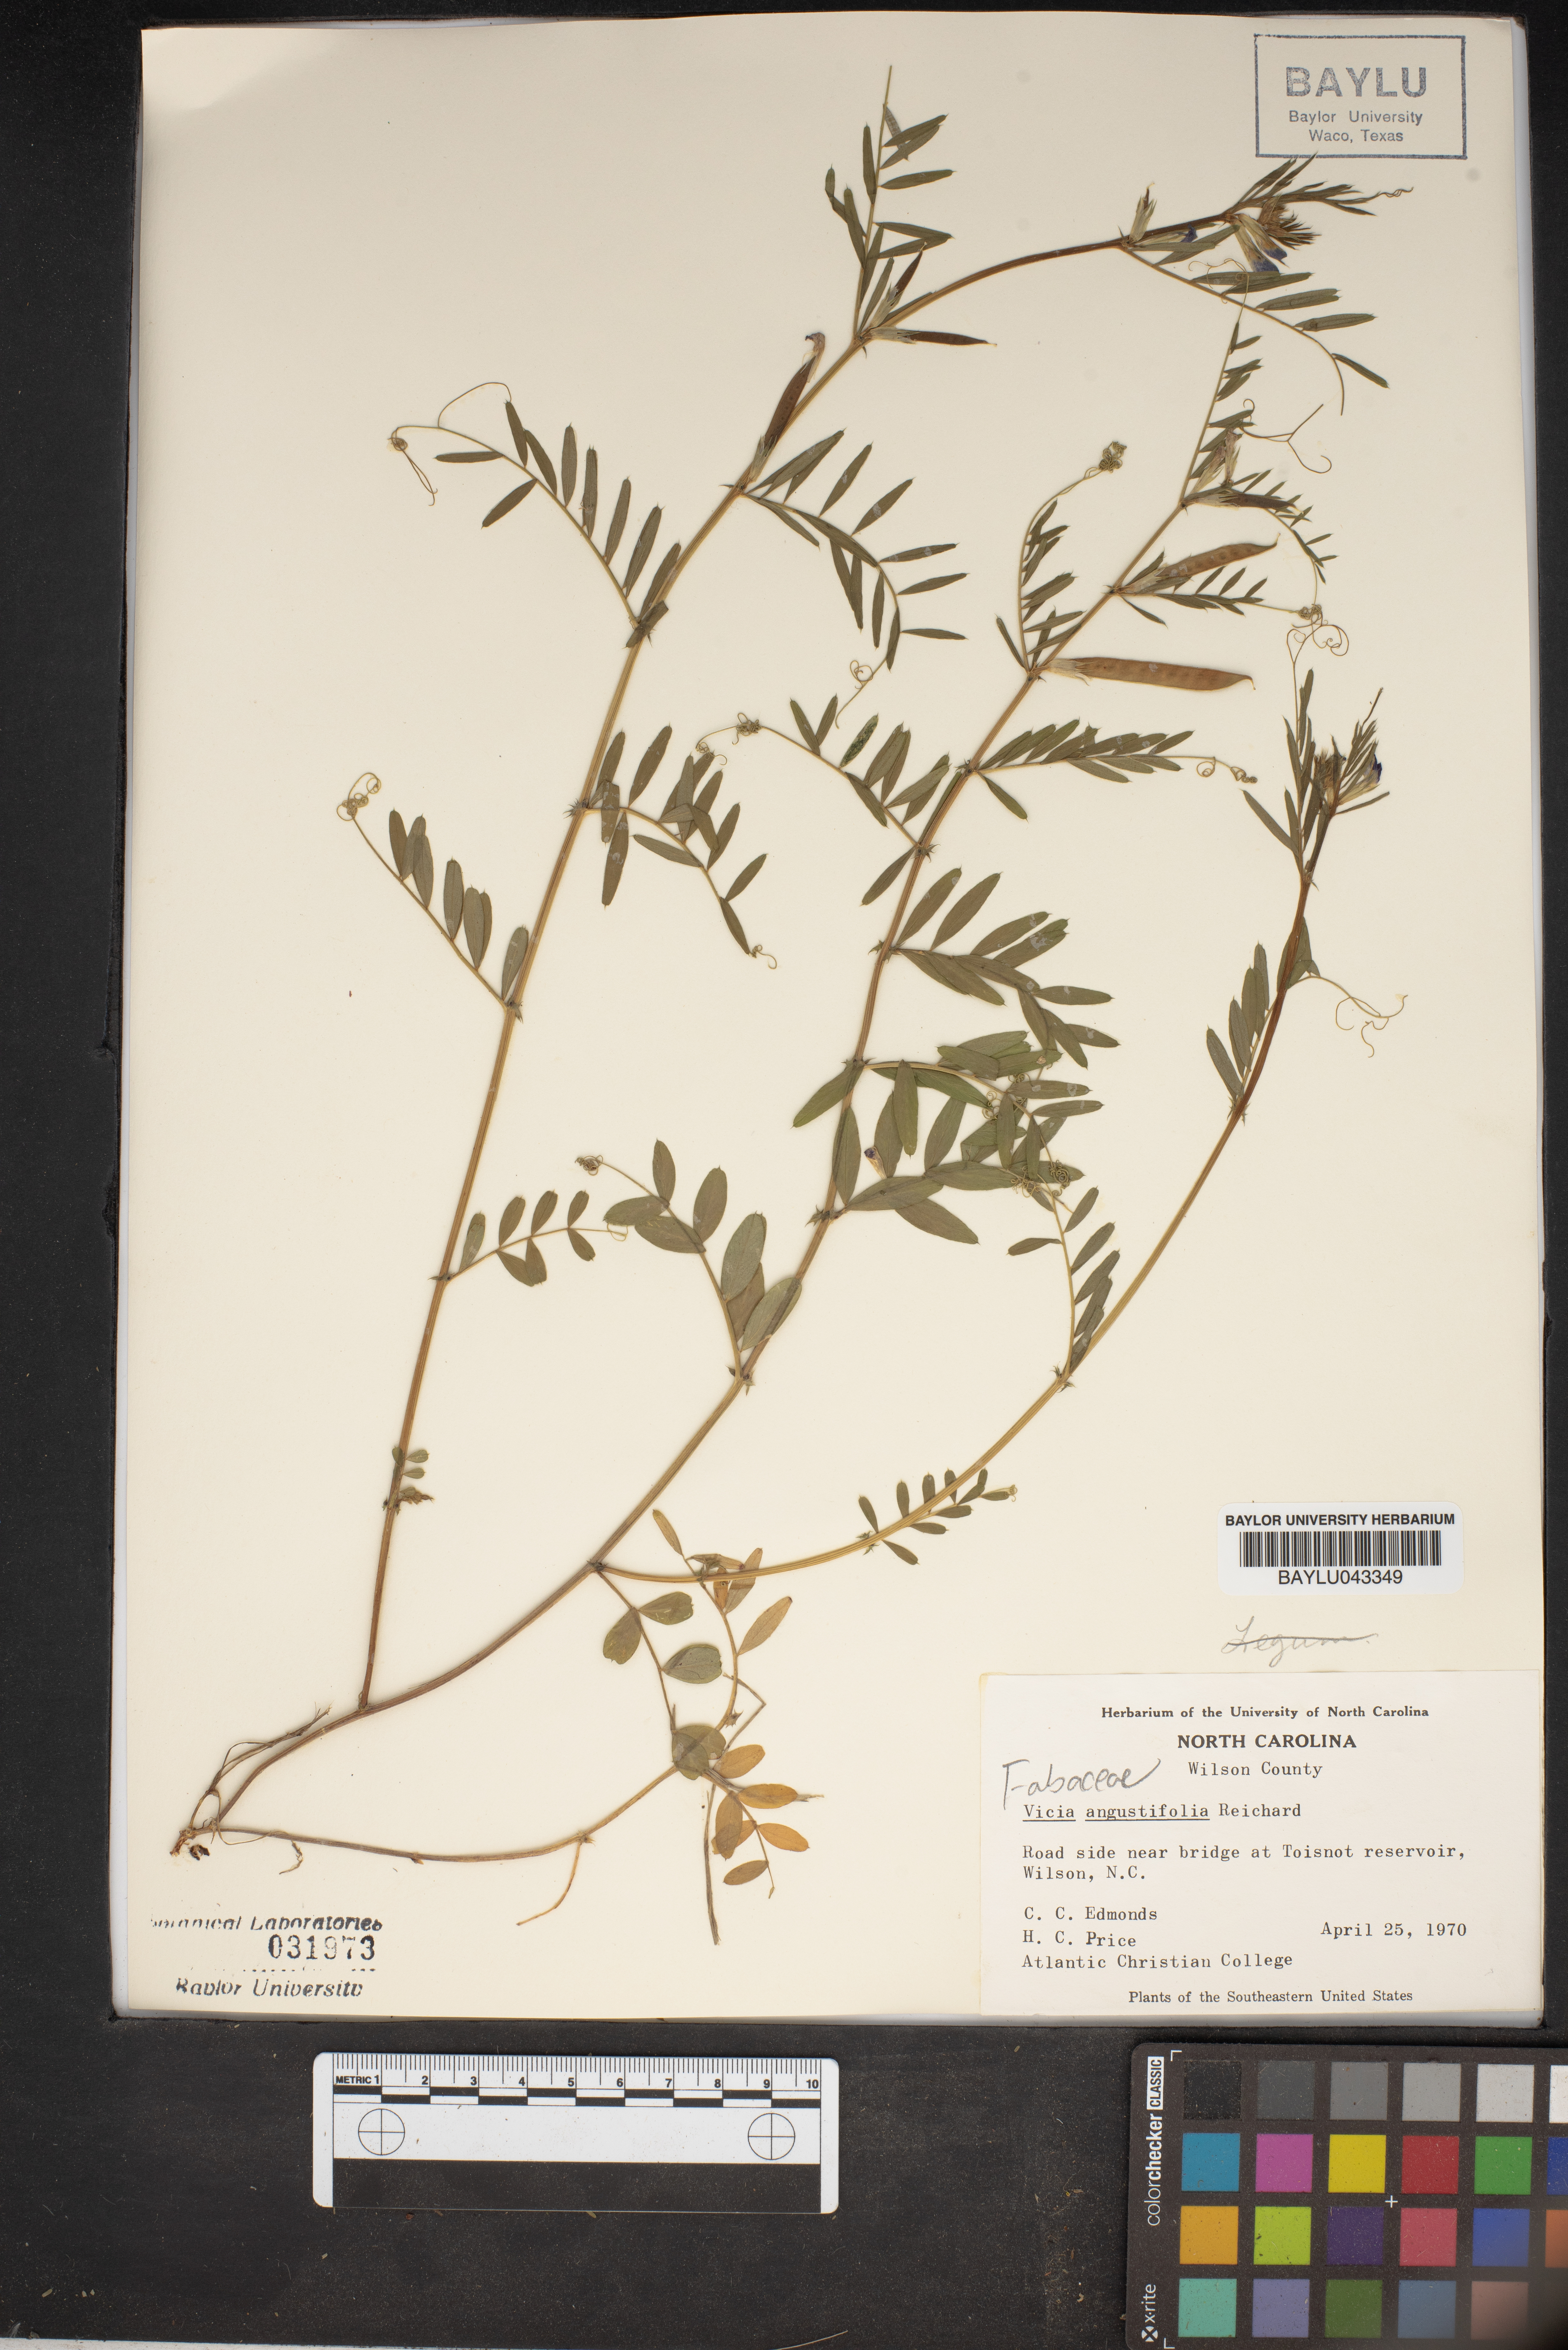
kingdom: Plantae
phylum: Tracheophyta
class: Magnoliopsida
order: Fabales
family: Fabaceae
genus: Vicia
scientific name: Vicia sativa
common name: Garden vetch
